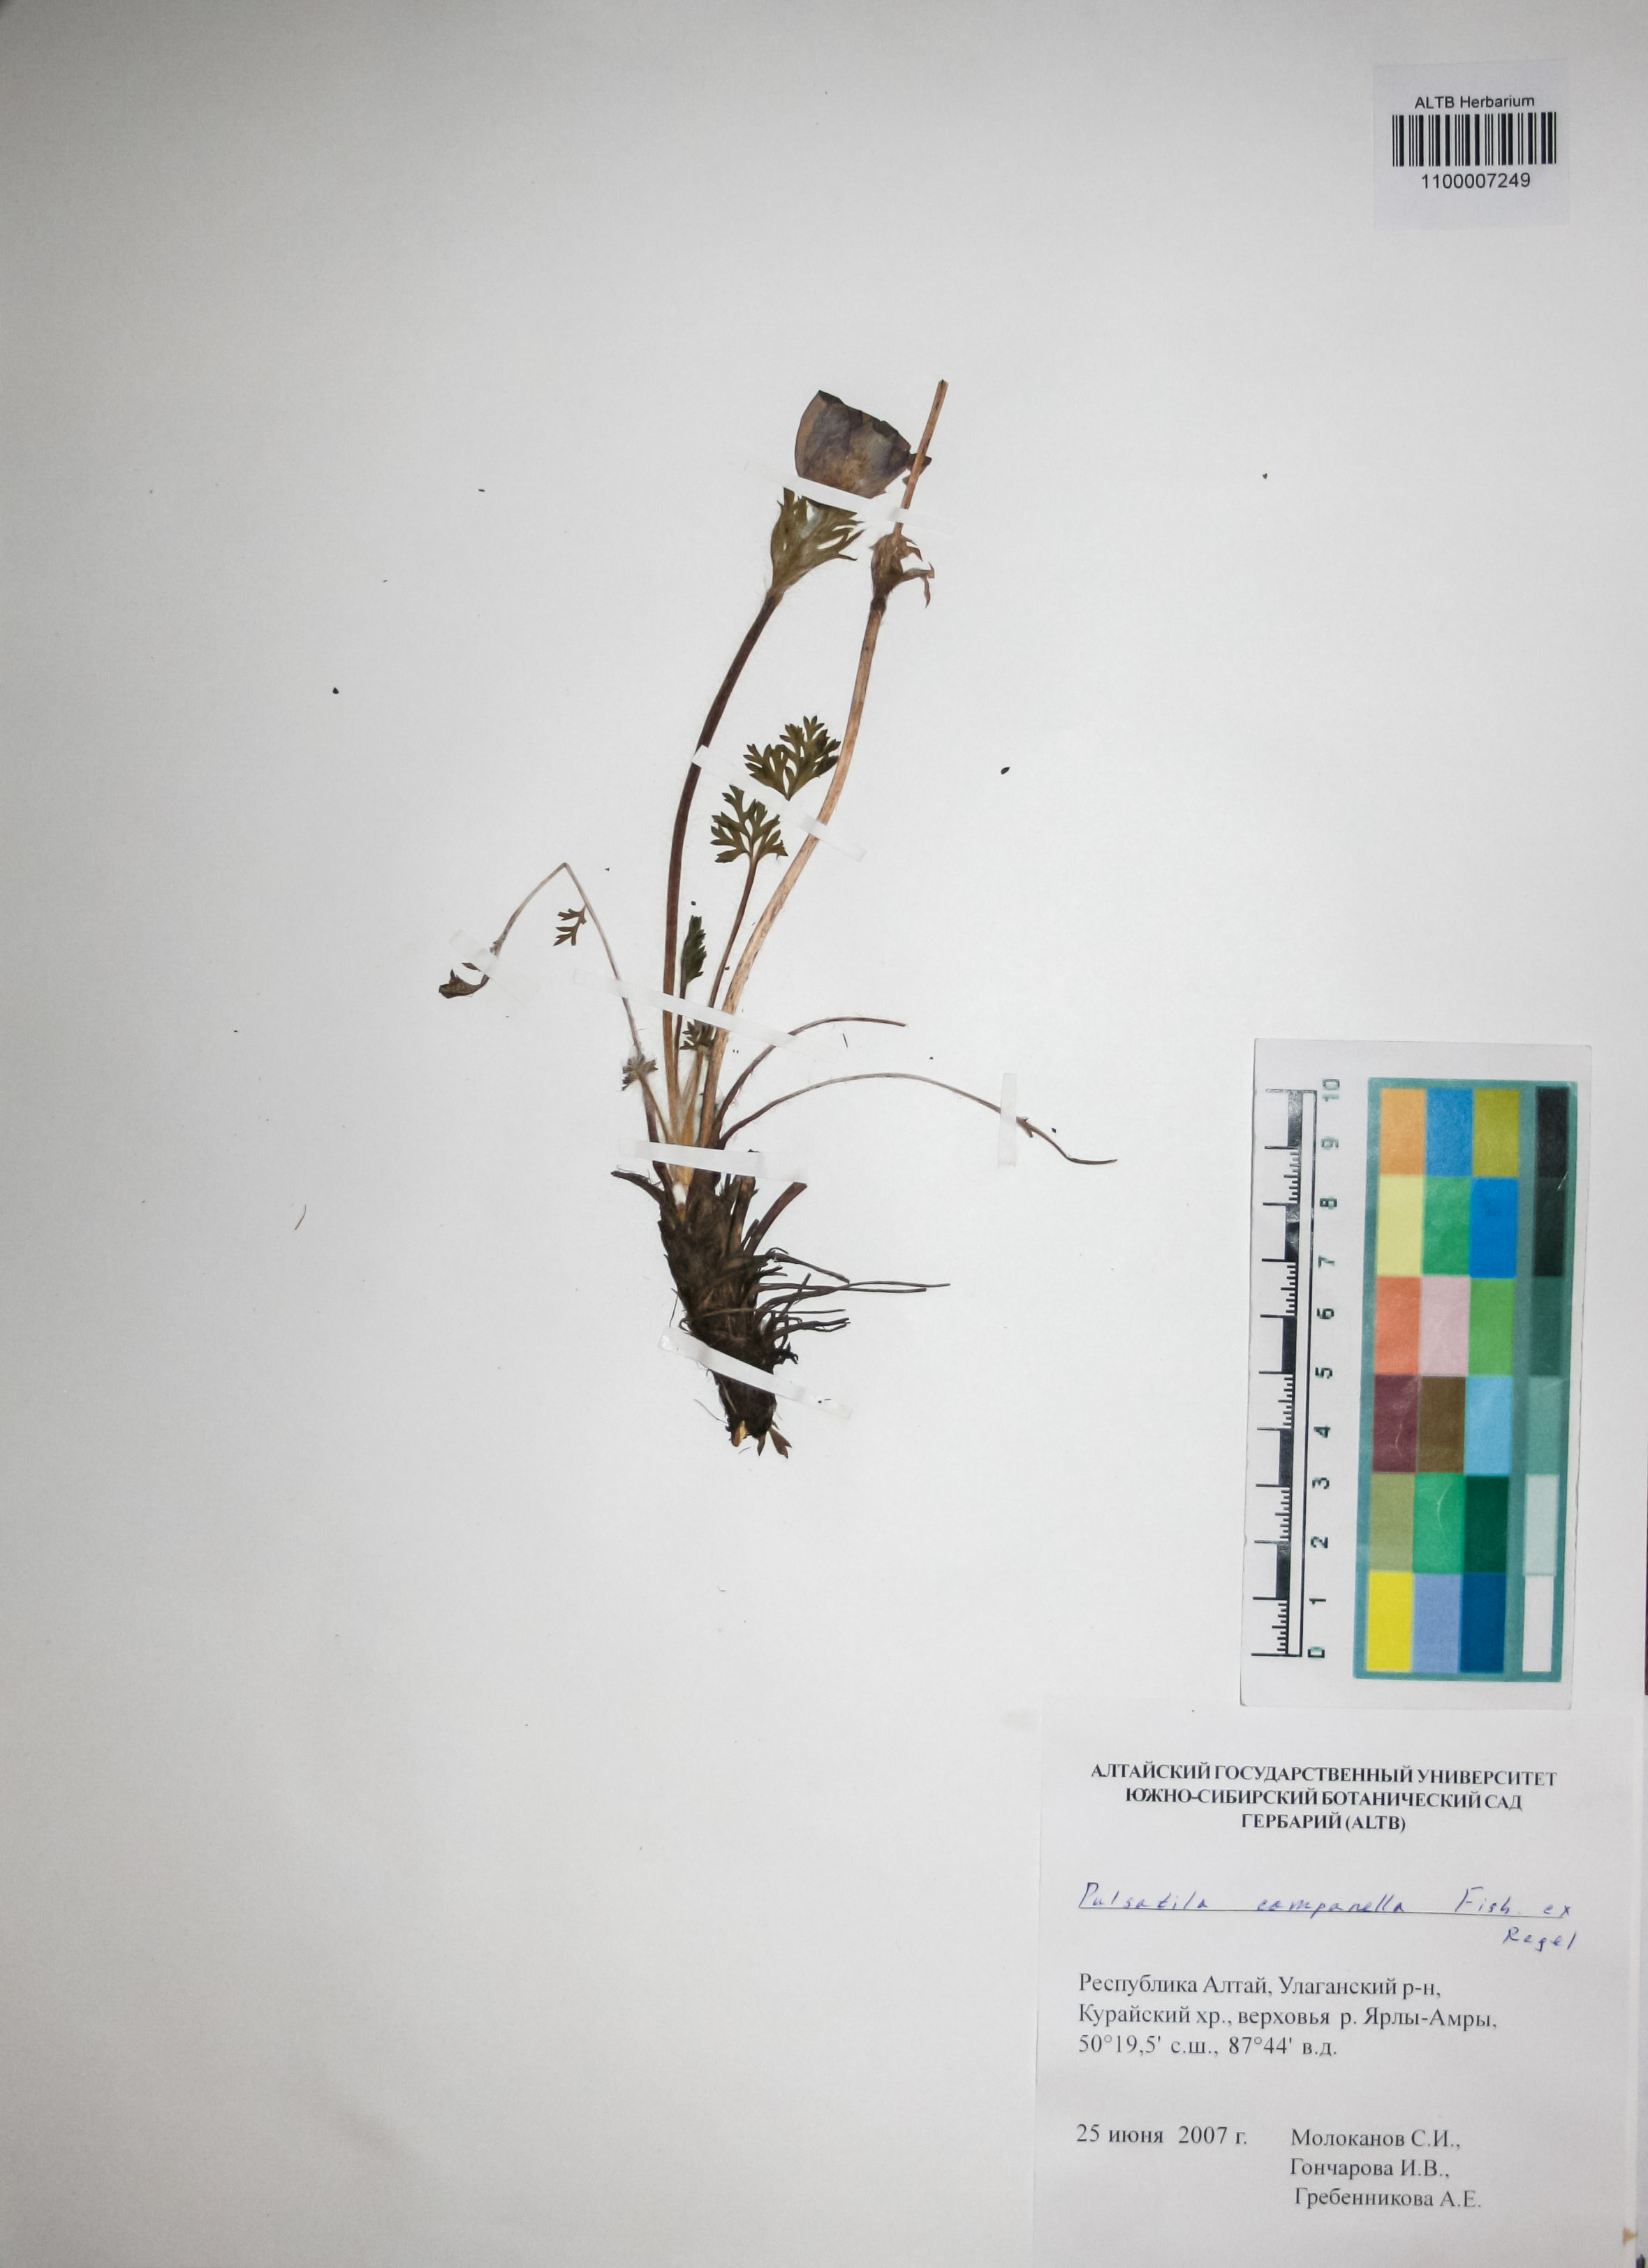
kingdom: Plantae
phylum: Tracheophyta
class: Magnoliopsida
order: Ranunculales
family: Ranunculaceae
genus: Pulsatilla
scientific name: Pulsatilla campanella
